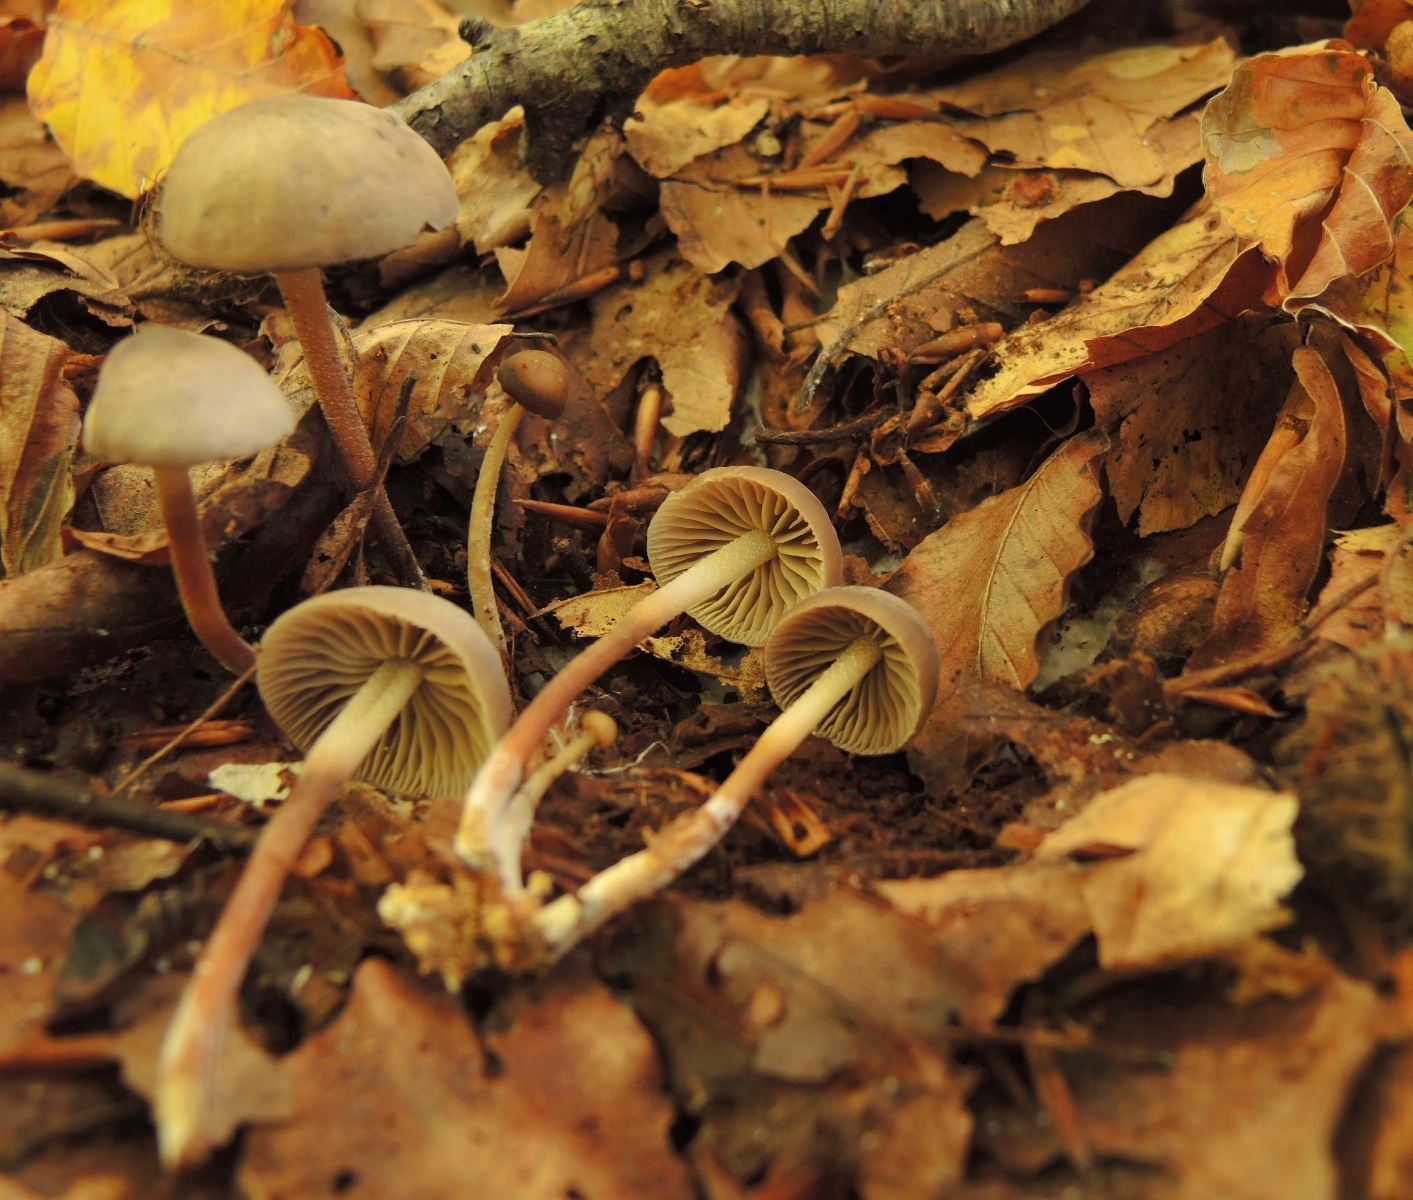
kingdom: Fungi
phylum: Basidiomycota
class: Agaricomycetes
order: Agaricales
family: Marasmiaceae
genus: Marasmius
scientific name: Marasmius wynneae
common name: hvælvet bruskhat
